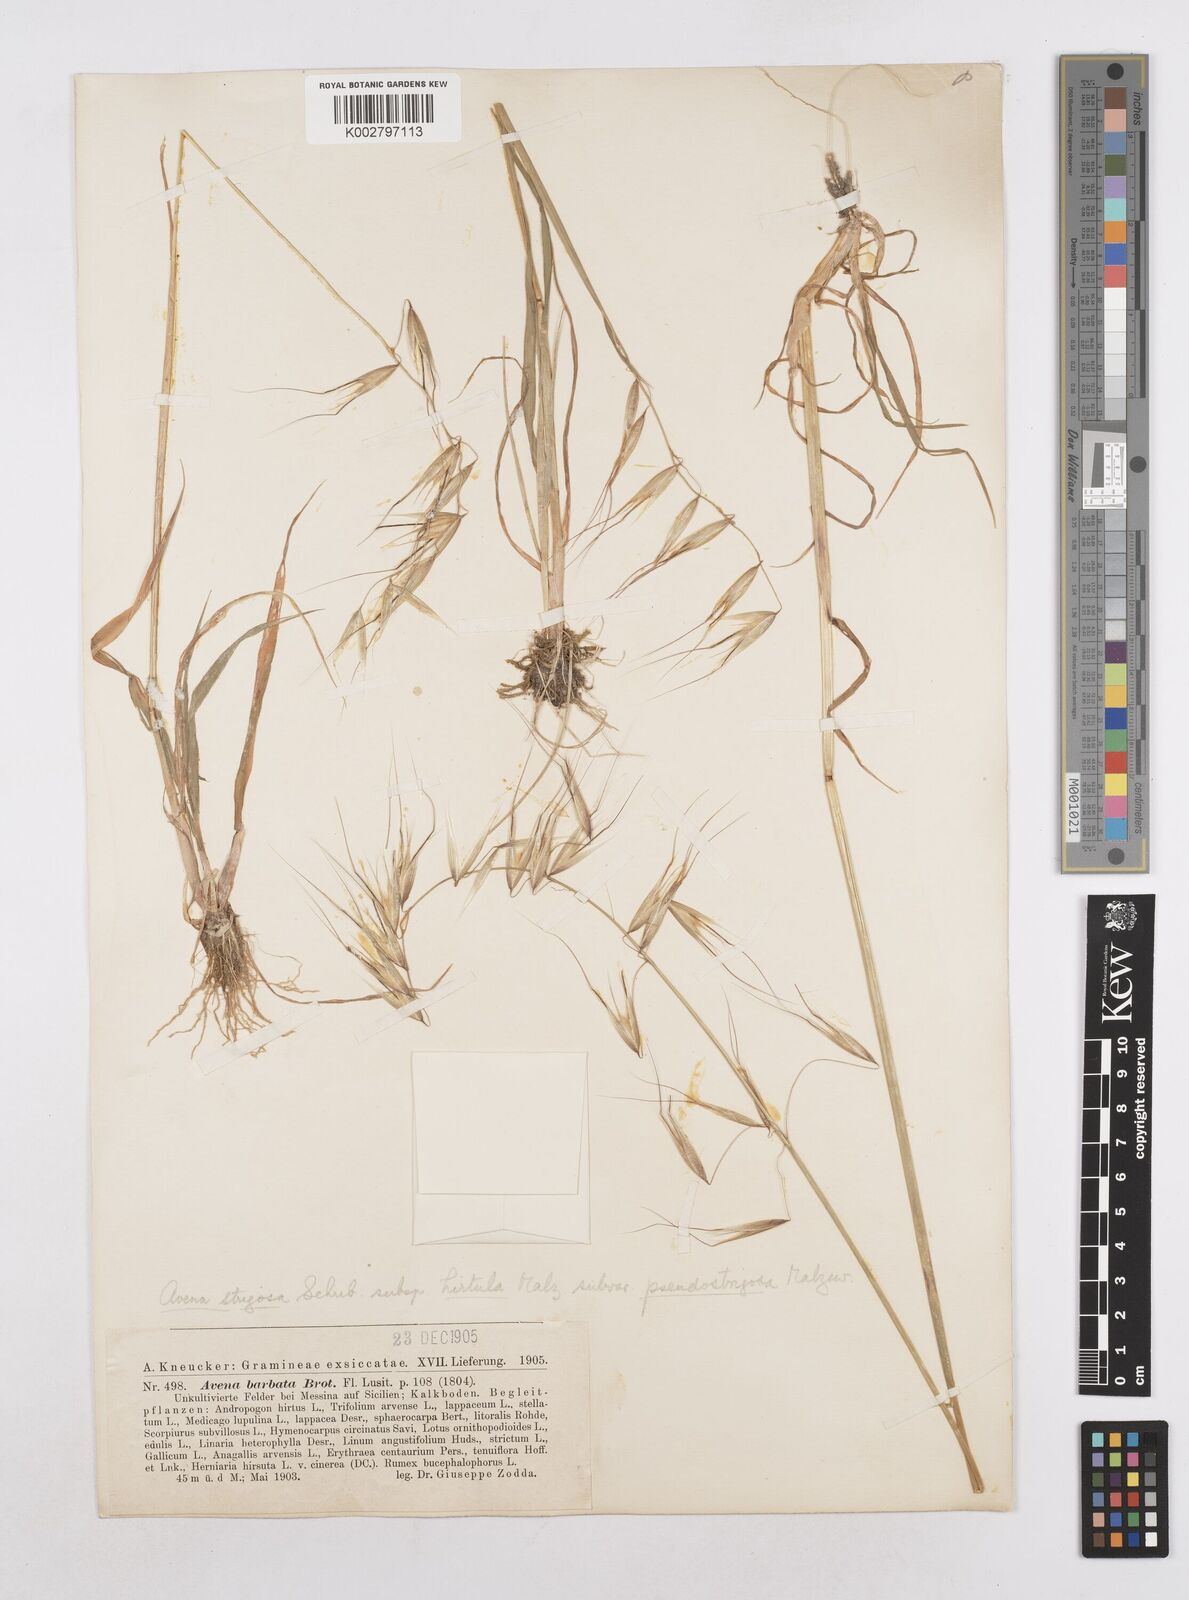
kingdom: Plantae
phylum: Tracheophyta
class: Liliopsida
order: Poales
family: Poaceae
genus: Avena
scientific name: Avena
